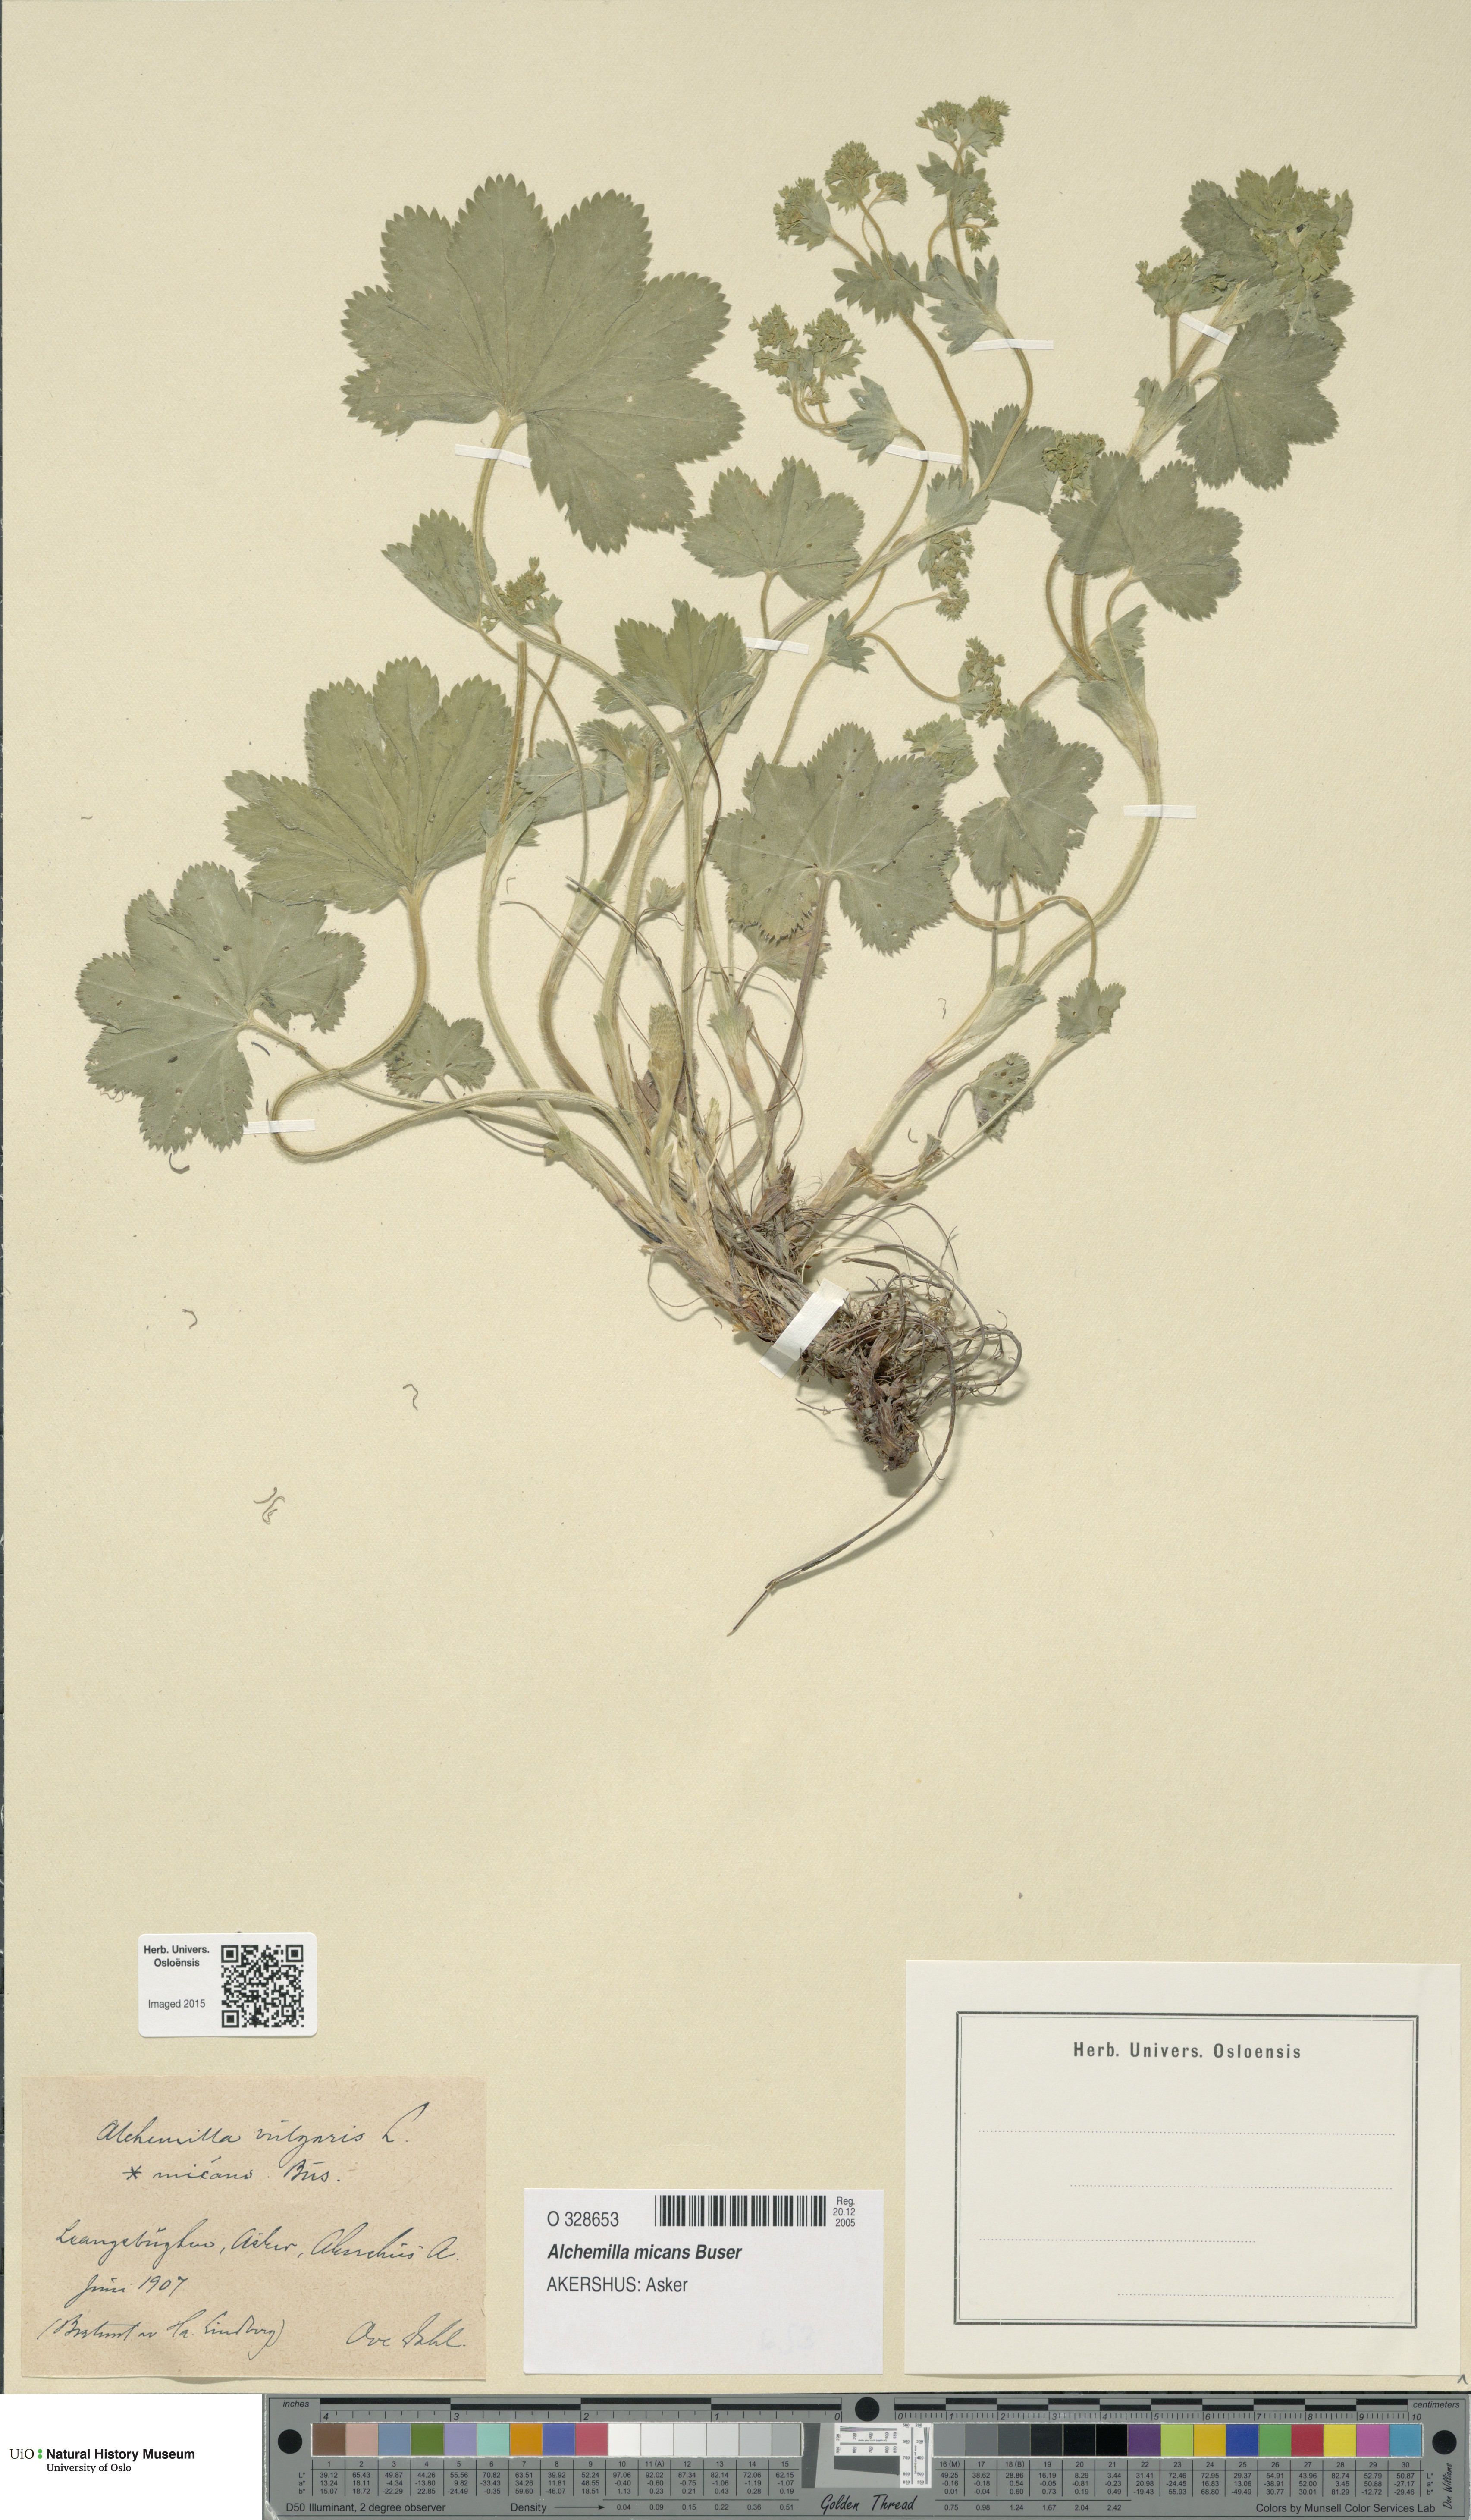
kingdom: Plantae
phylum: Tracheophyta
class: Magnoliopsida
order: Rosales
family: Rosaceae
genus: Alchemilla
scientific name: Alchemilla micans
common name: Gleaming lady's mantle
